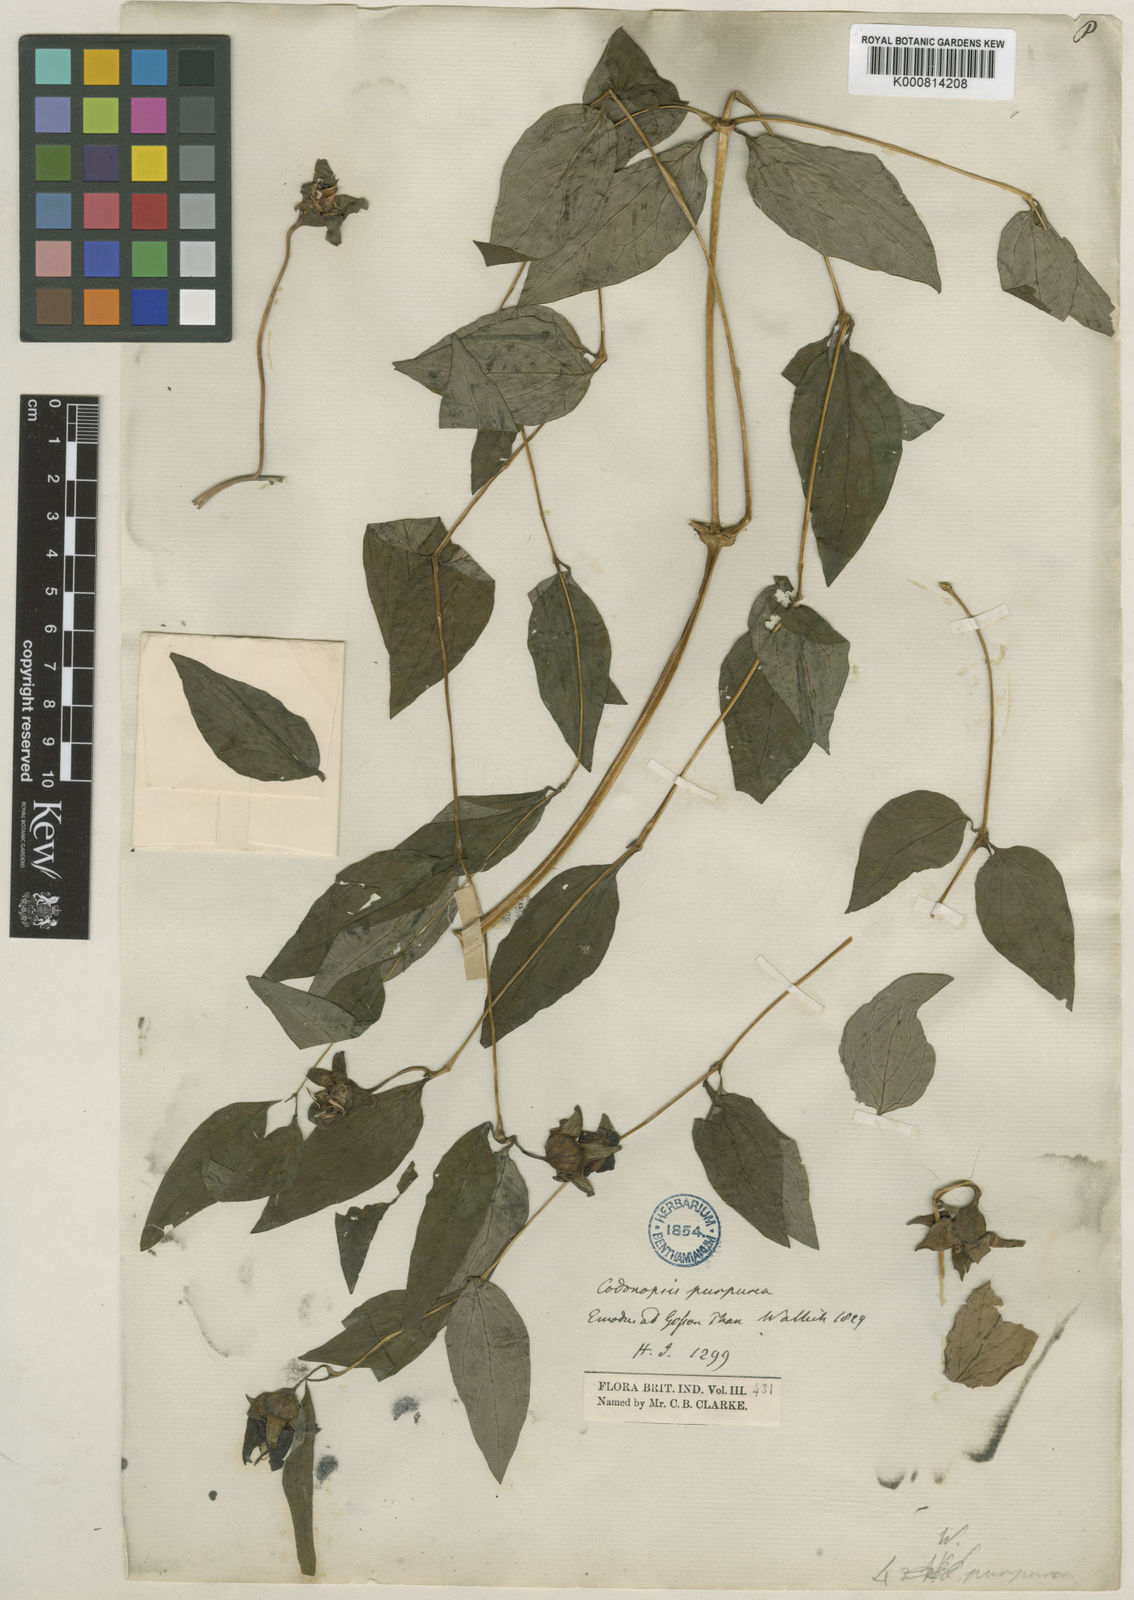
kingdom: Plantae
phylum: Tracheophyta
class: Magnoliopsida
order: Asterales
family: Campanulaceae
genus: Pankycodon
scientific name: Pankycodon purpureus
